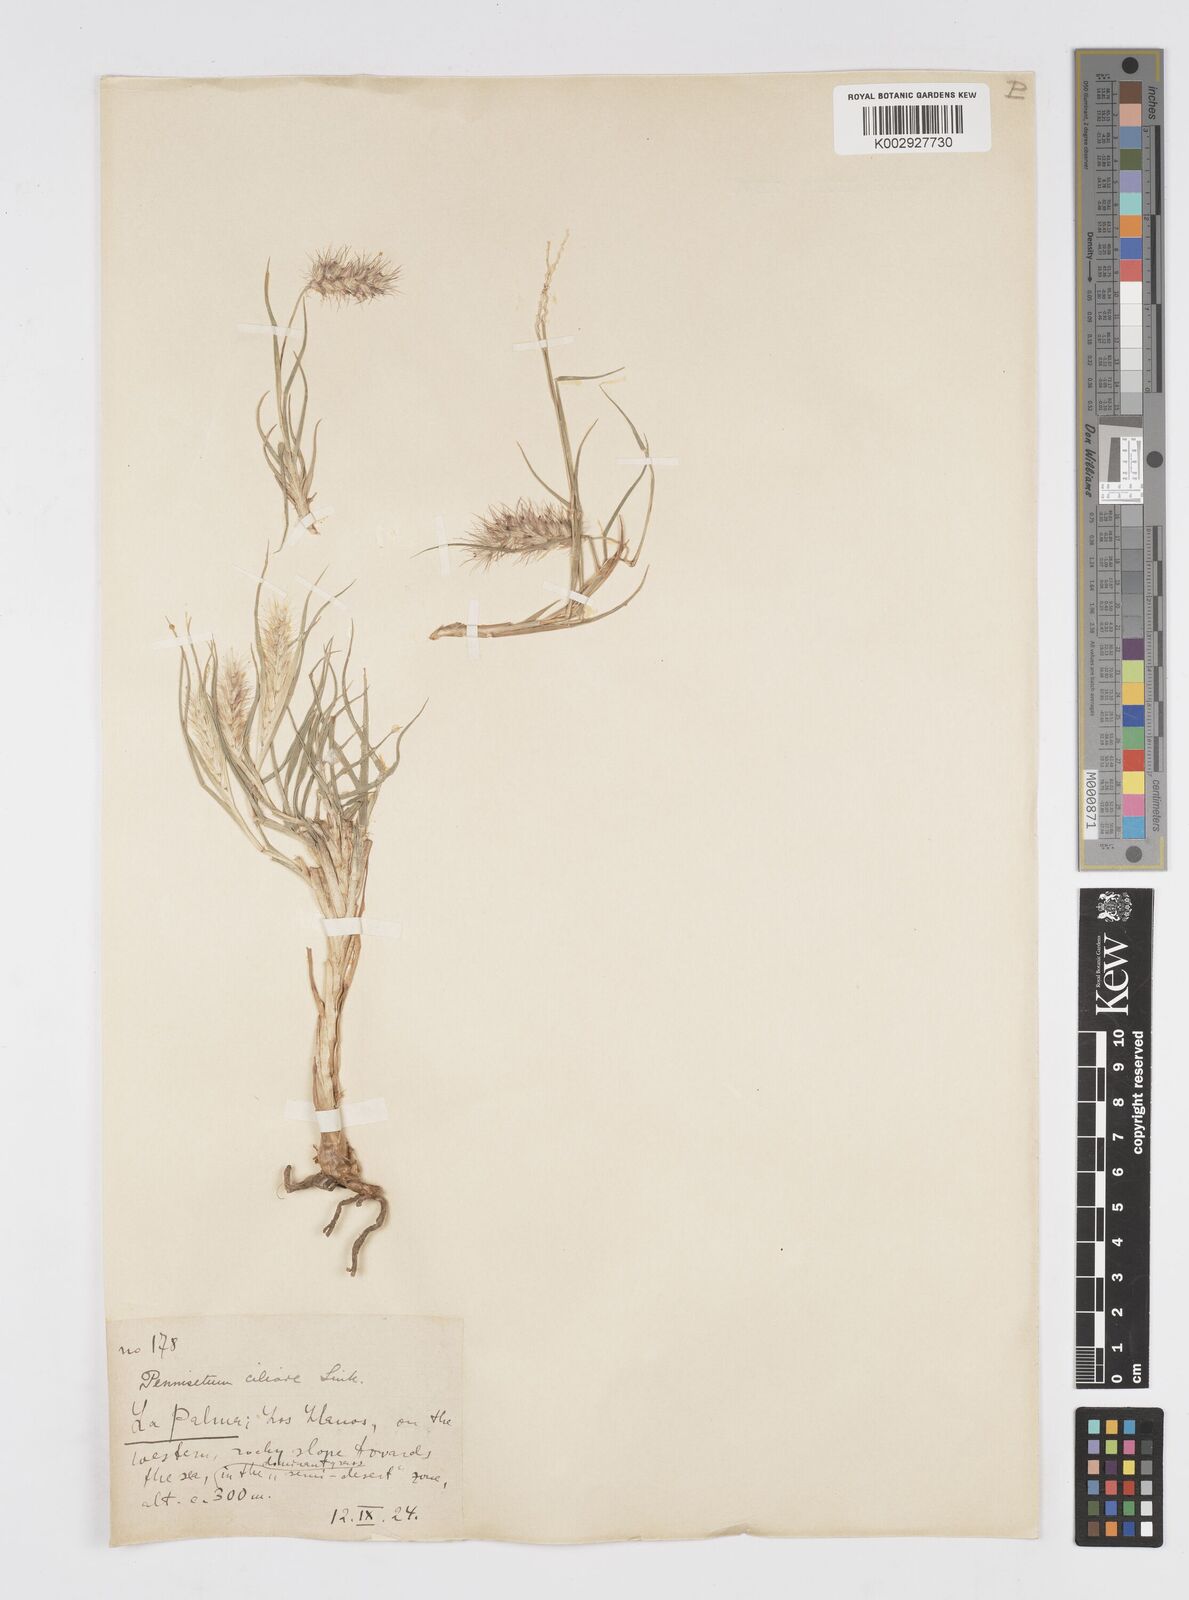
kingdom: Plantae
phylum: Tracheophyta
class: Liliopsida
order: Poales
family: Poaceae
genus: Cenchrus
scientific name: Cenchrus ciliaris
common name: Buffelgrass
